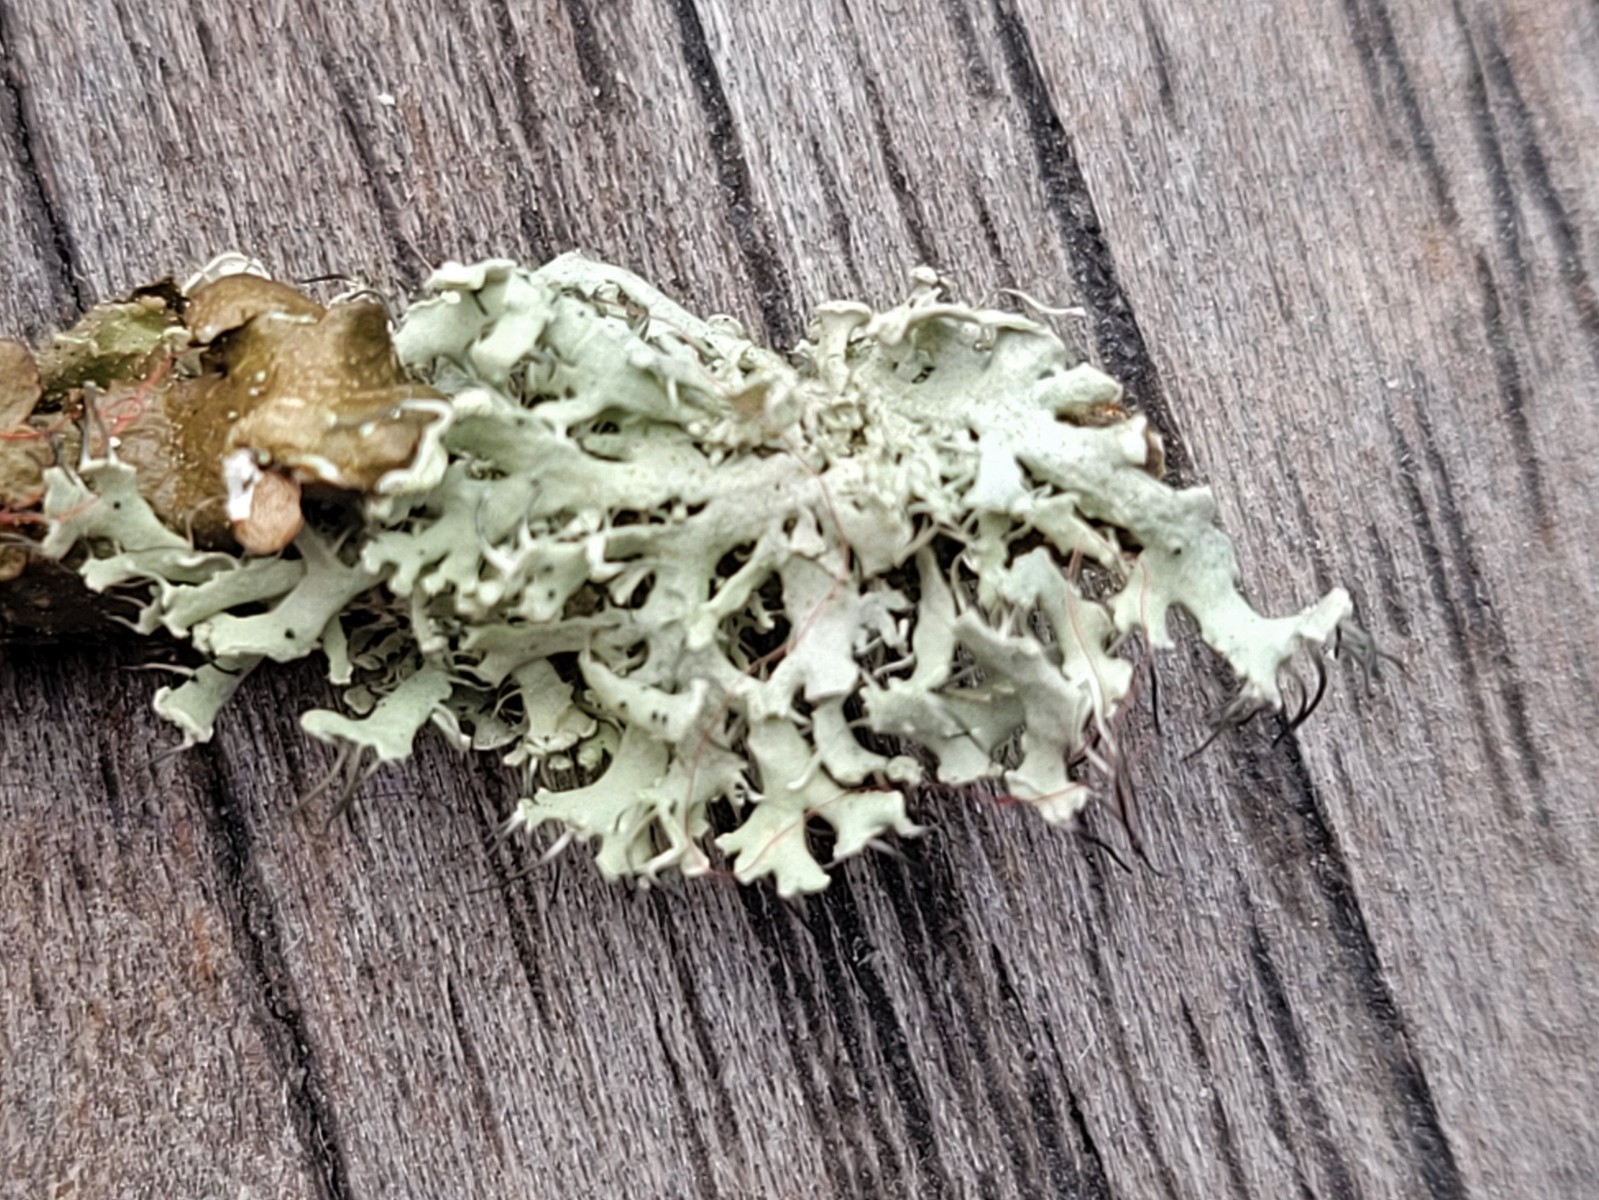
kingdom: Fungi
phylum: Ascomycota
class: Lecanoromycetes
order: Caliciales
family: Physciaceae
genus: Physcia
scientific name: Physcia tenella
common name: spæd rosetlav
